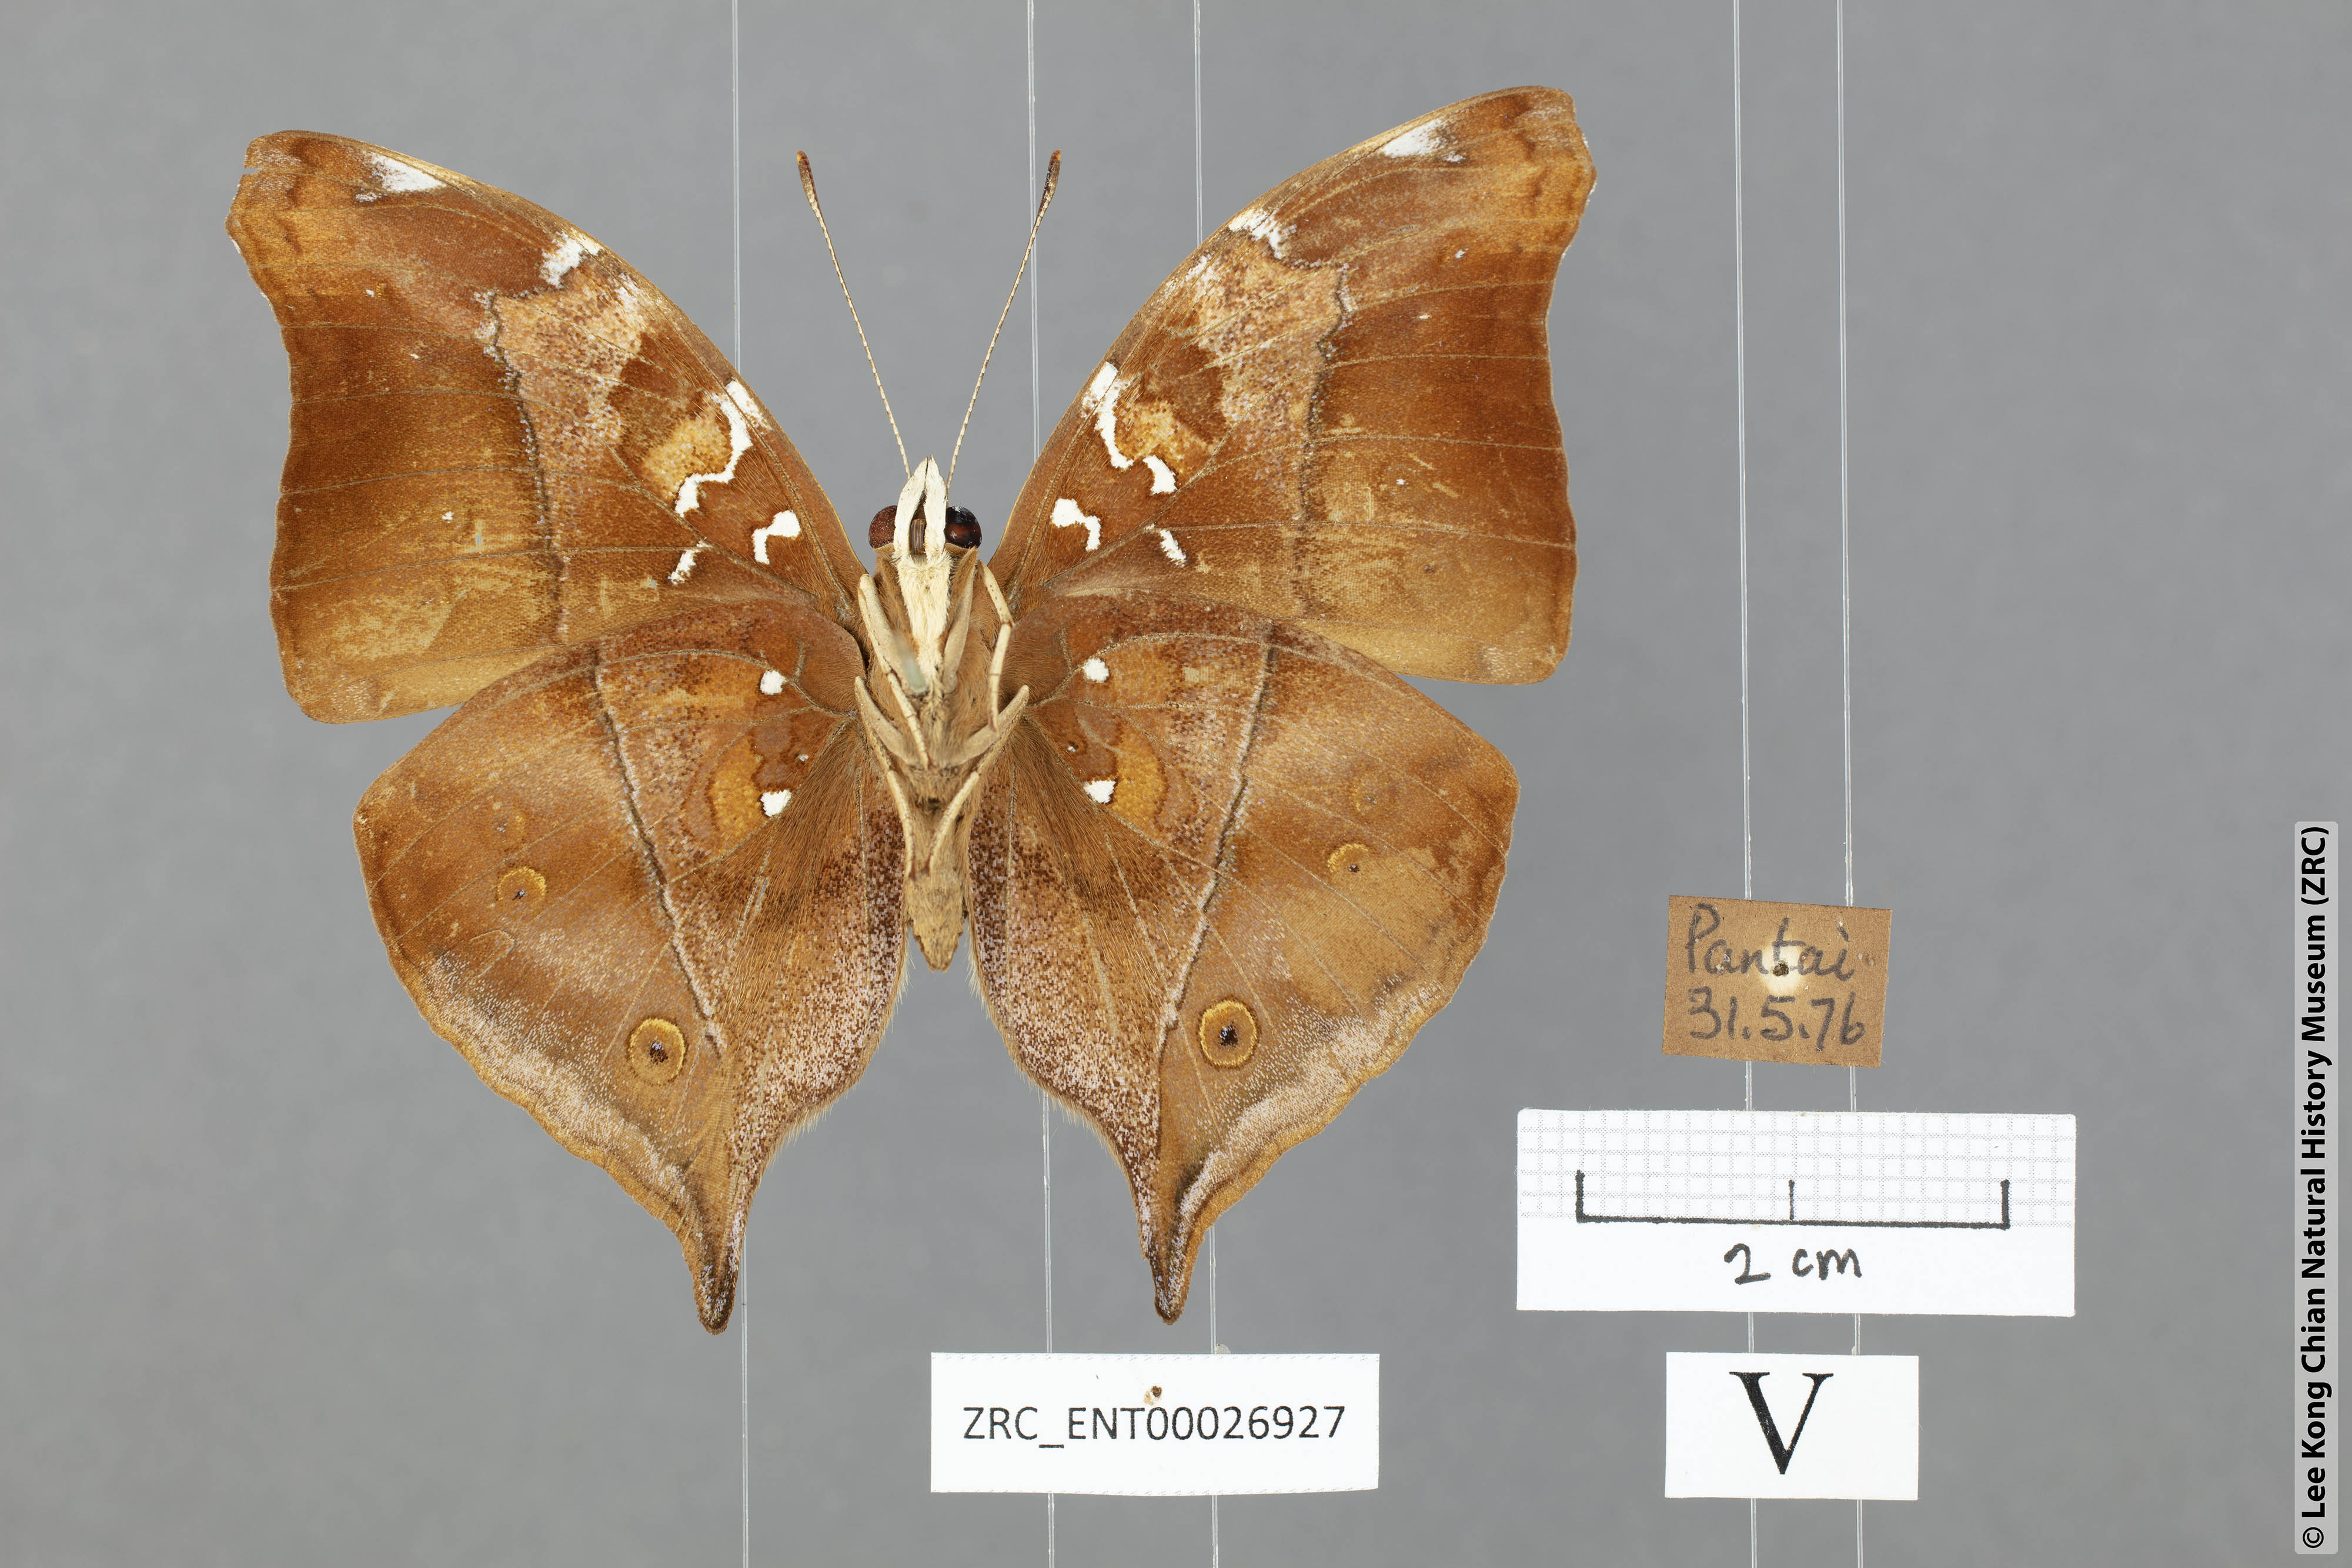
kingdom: Animalia
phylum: Arthropoda
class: Insecta
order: Lepidoptera
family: Nymphalidae
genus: Doleschallia
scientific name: Doleschallia bisaltide
